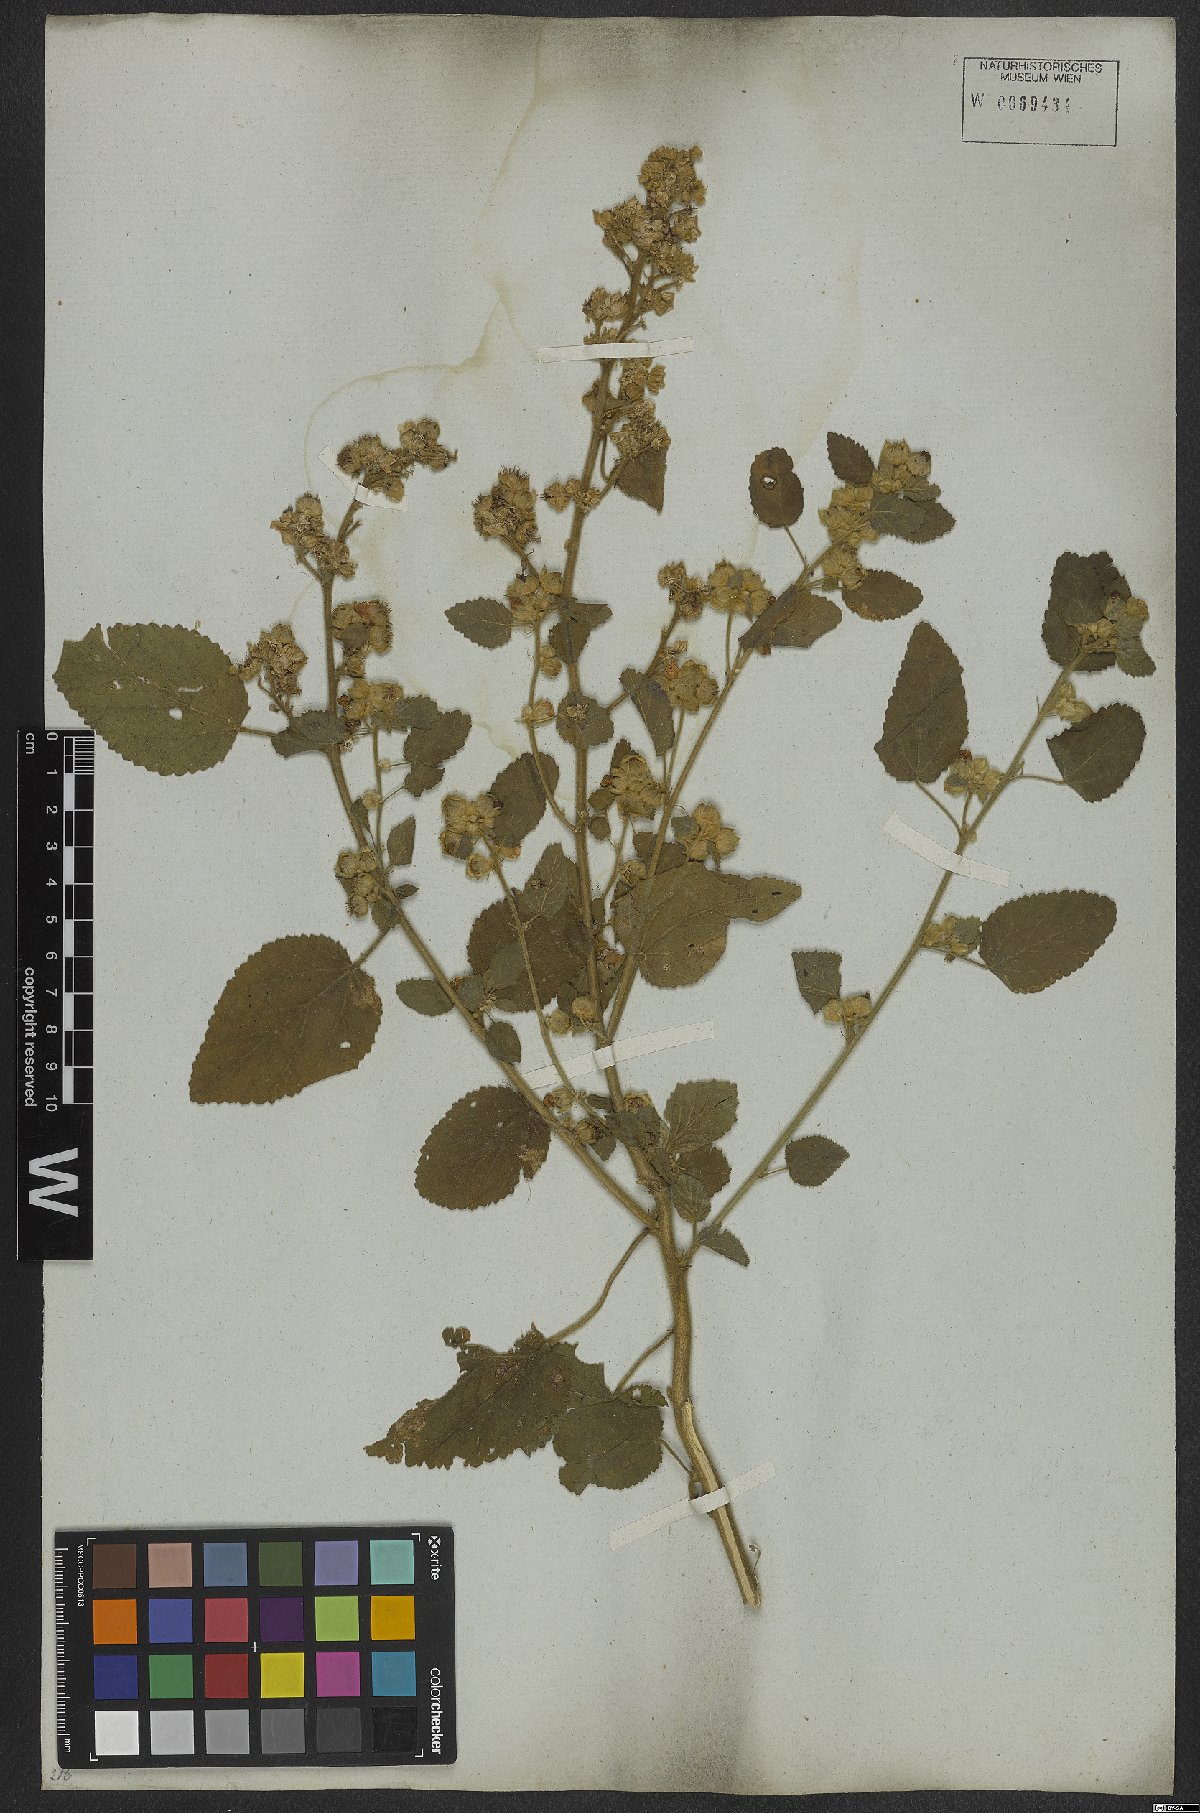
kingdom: Plantae
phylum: Tracheophyta
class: Magnoliopsida
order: Malvales
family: Malvaceae
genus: Sida
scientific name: Sida cordifolia
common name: Ilima
